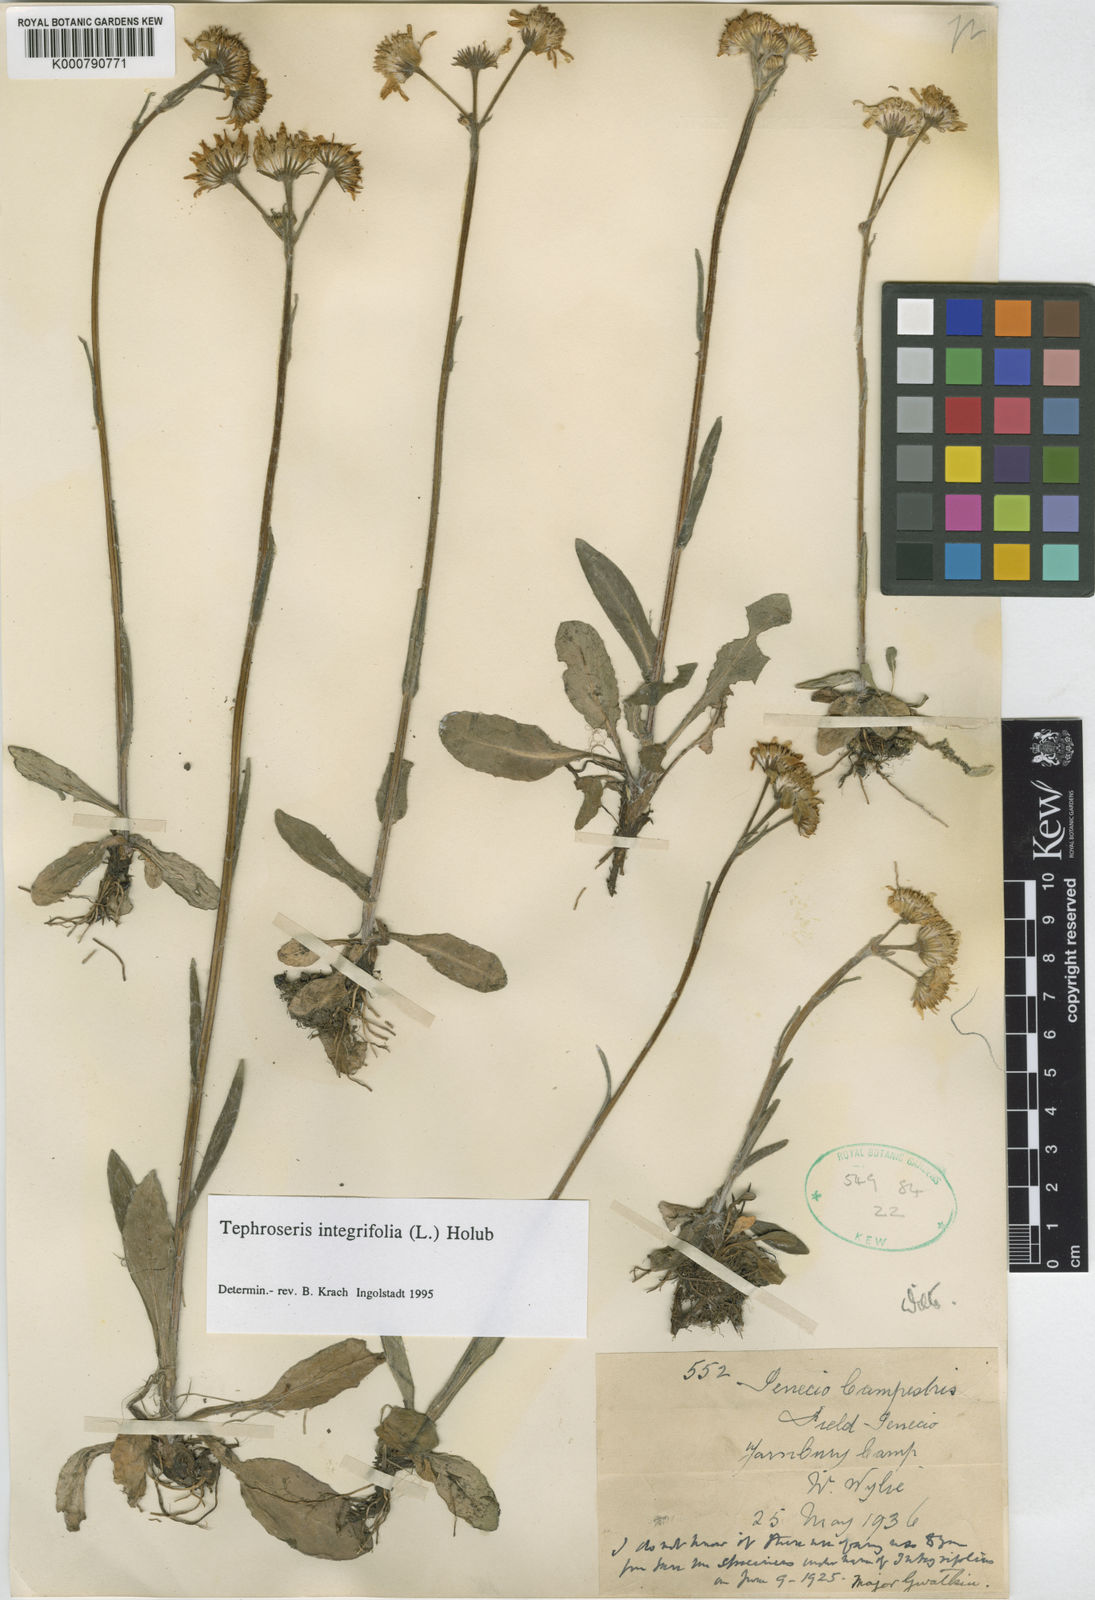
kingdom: Plantae
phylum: Tracheophyta
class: Magnoliopsida
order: Asterales
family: Asteraceae
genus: Tephroseris
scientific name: Tephroseris integrifolia
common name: Field fleawort
